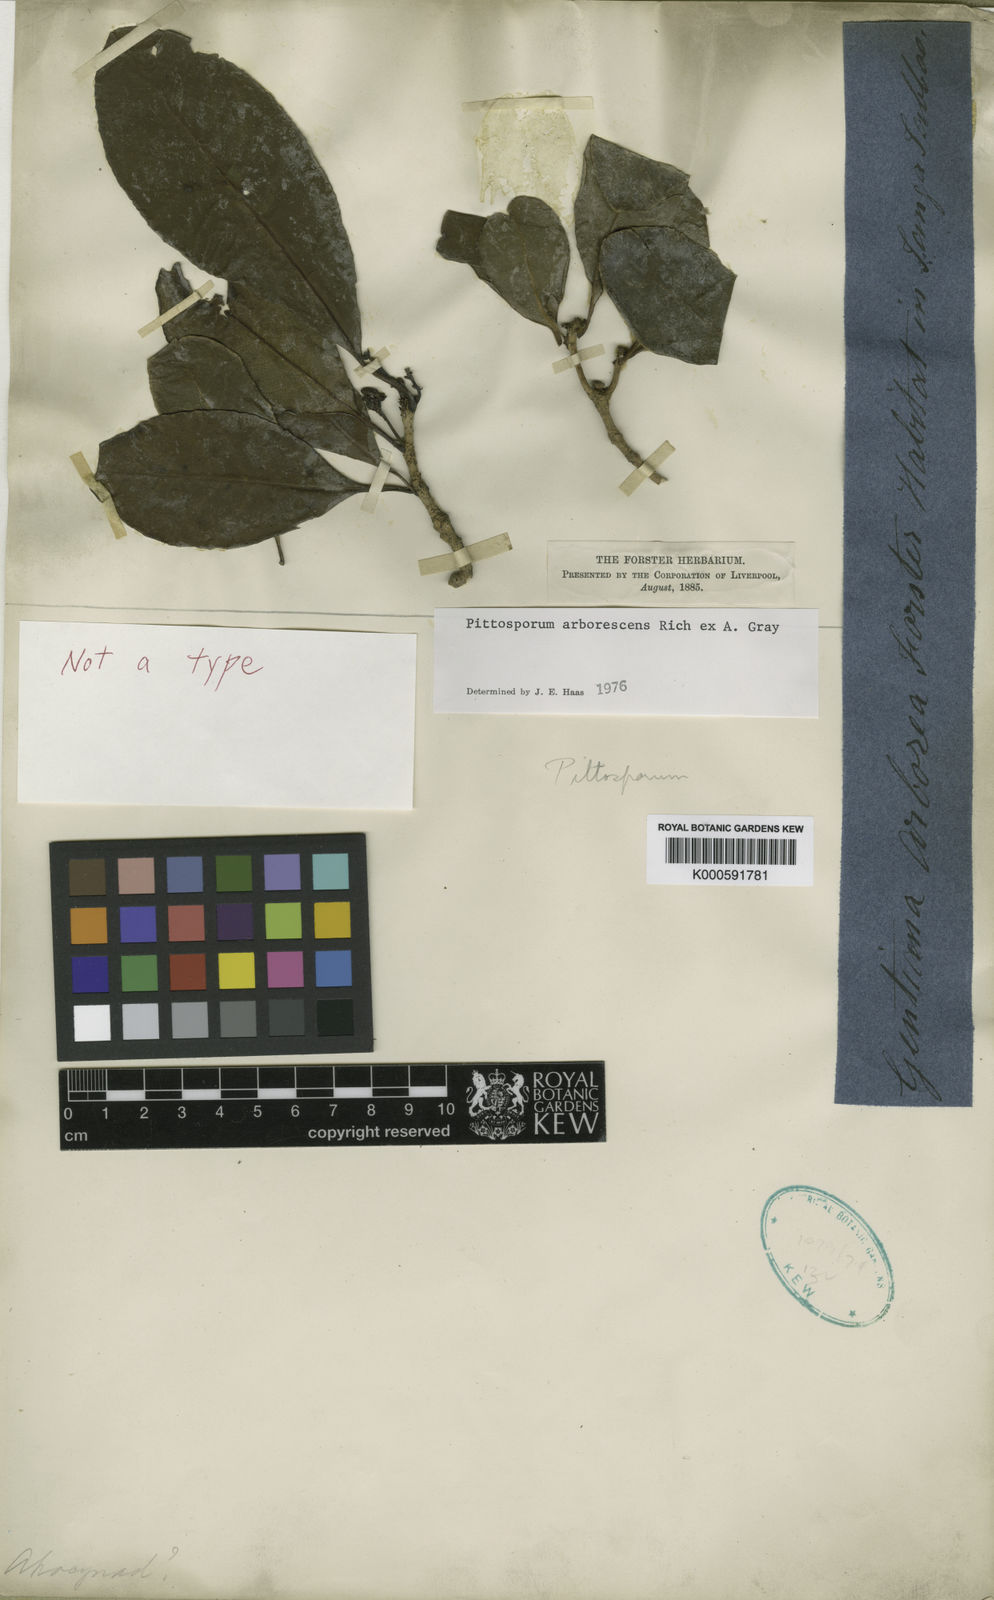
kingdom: Plantae
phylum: Tracheophyta
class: Magnoliopsida
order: Apiales
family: Pittosporaceae
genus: Pittosporum
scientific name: Pittosporum arborescens
